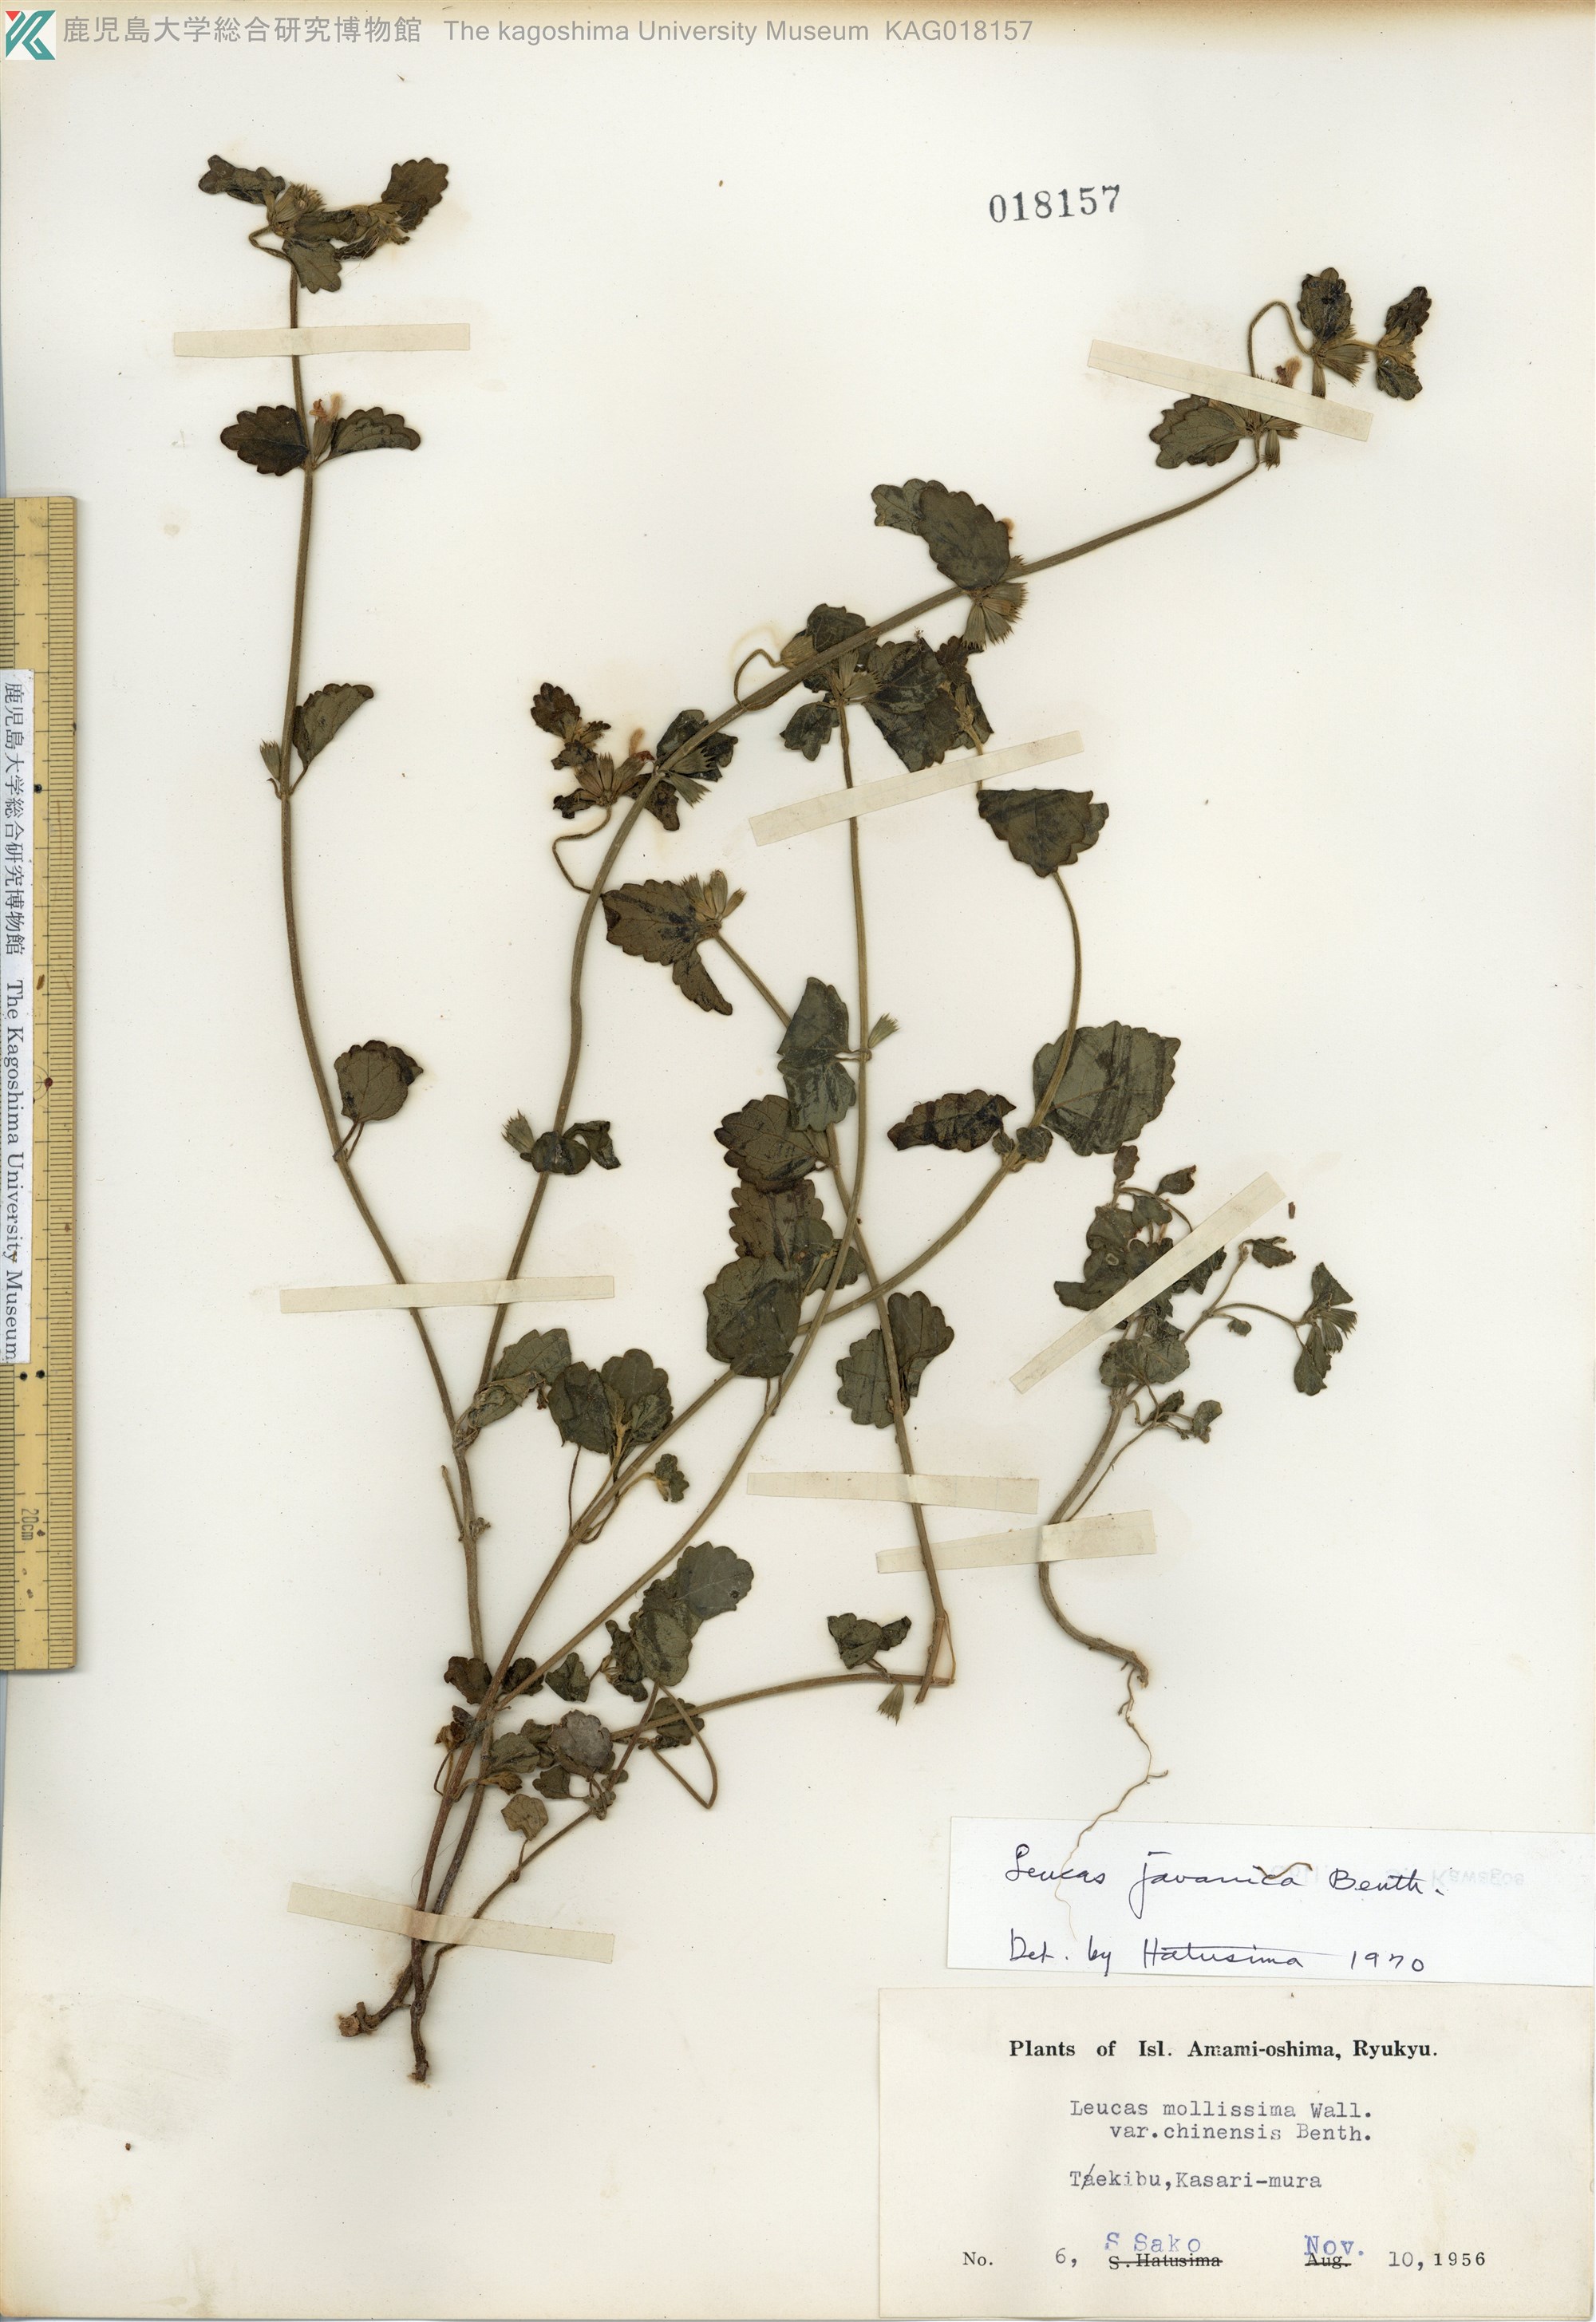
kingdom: Plantae
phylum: Tracheophyta
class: Magnoliopsida
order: Lamiales
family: Lamiaceae
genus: Leucas
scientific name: Leucas chinensis
